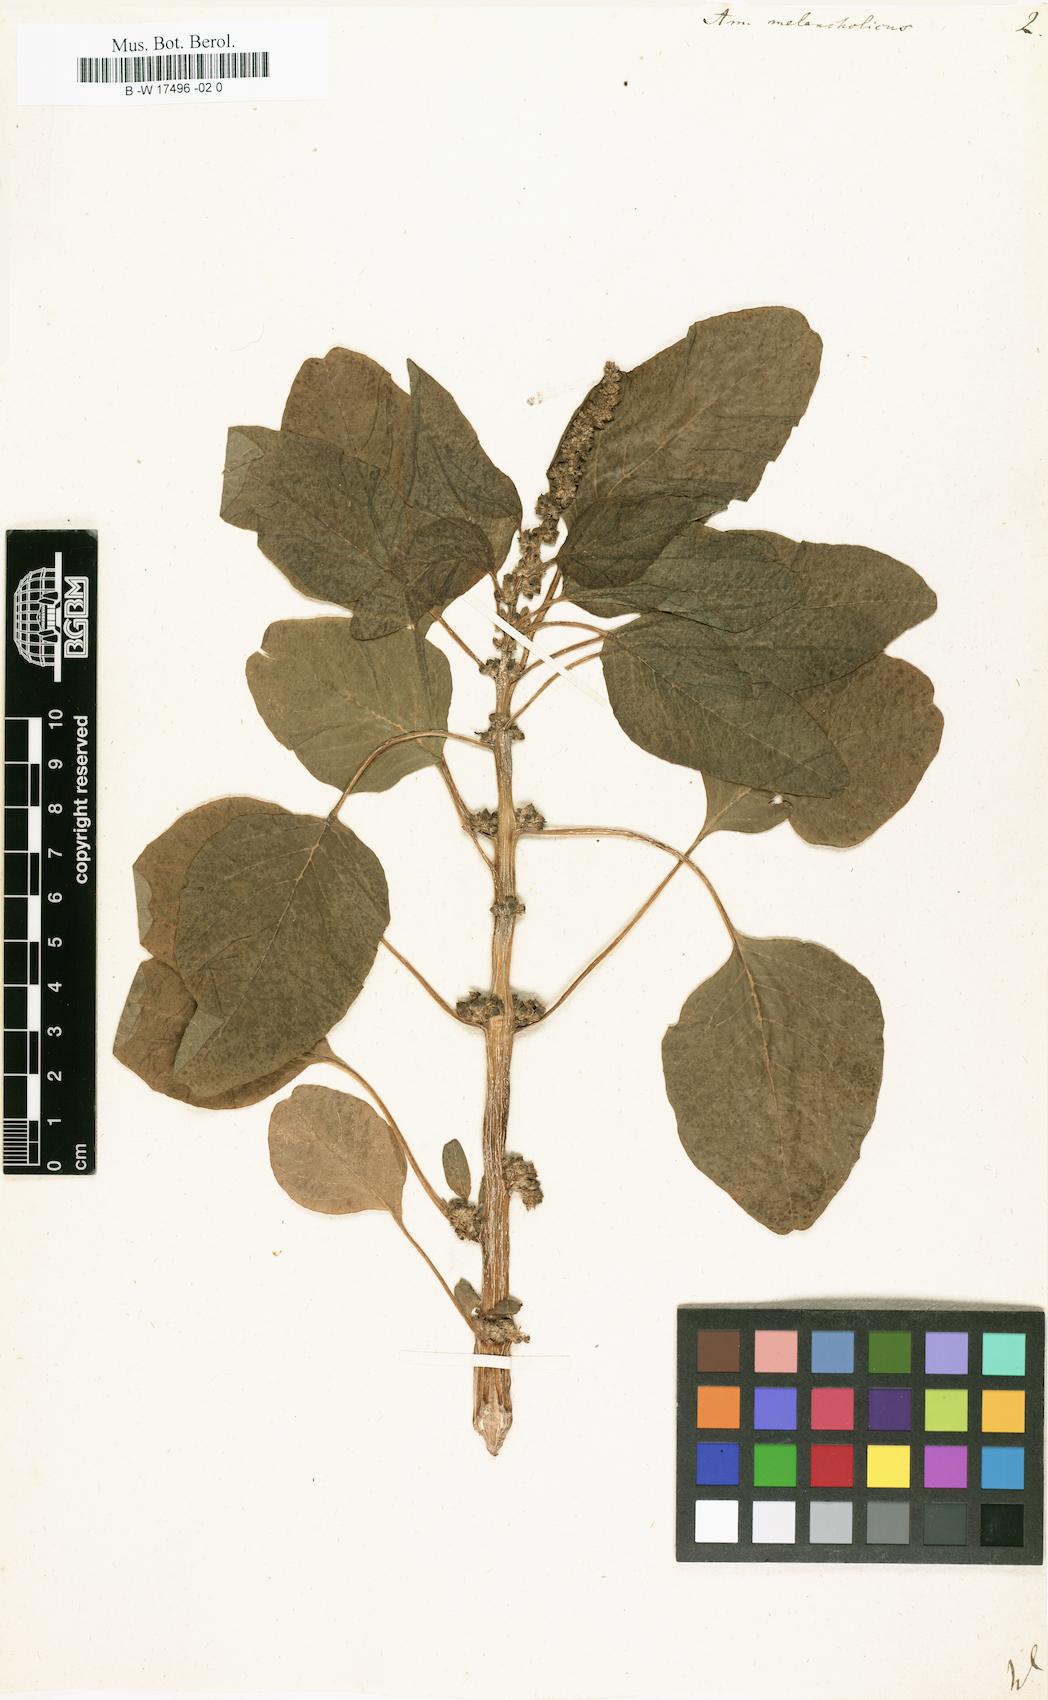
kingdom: Plantae
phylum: Tracheophyta
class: Magnoliopsida
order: Caryophyllales
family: Amaranthaceae
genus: Amaranthus
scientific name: Amaranthus tricolor
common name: Joseph's-coat
